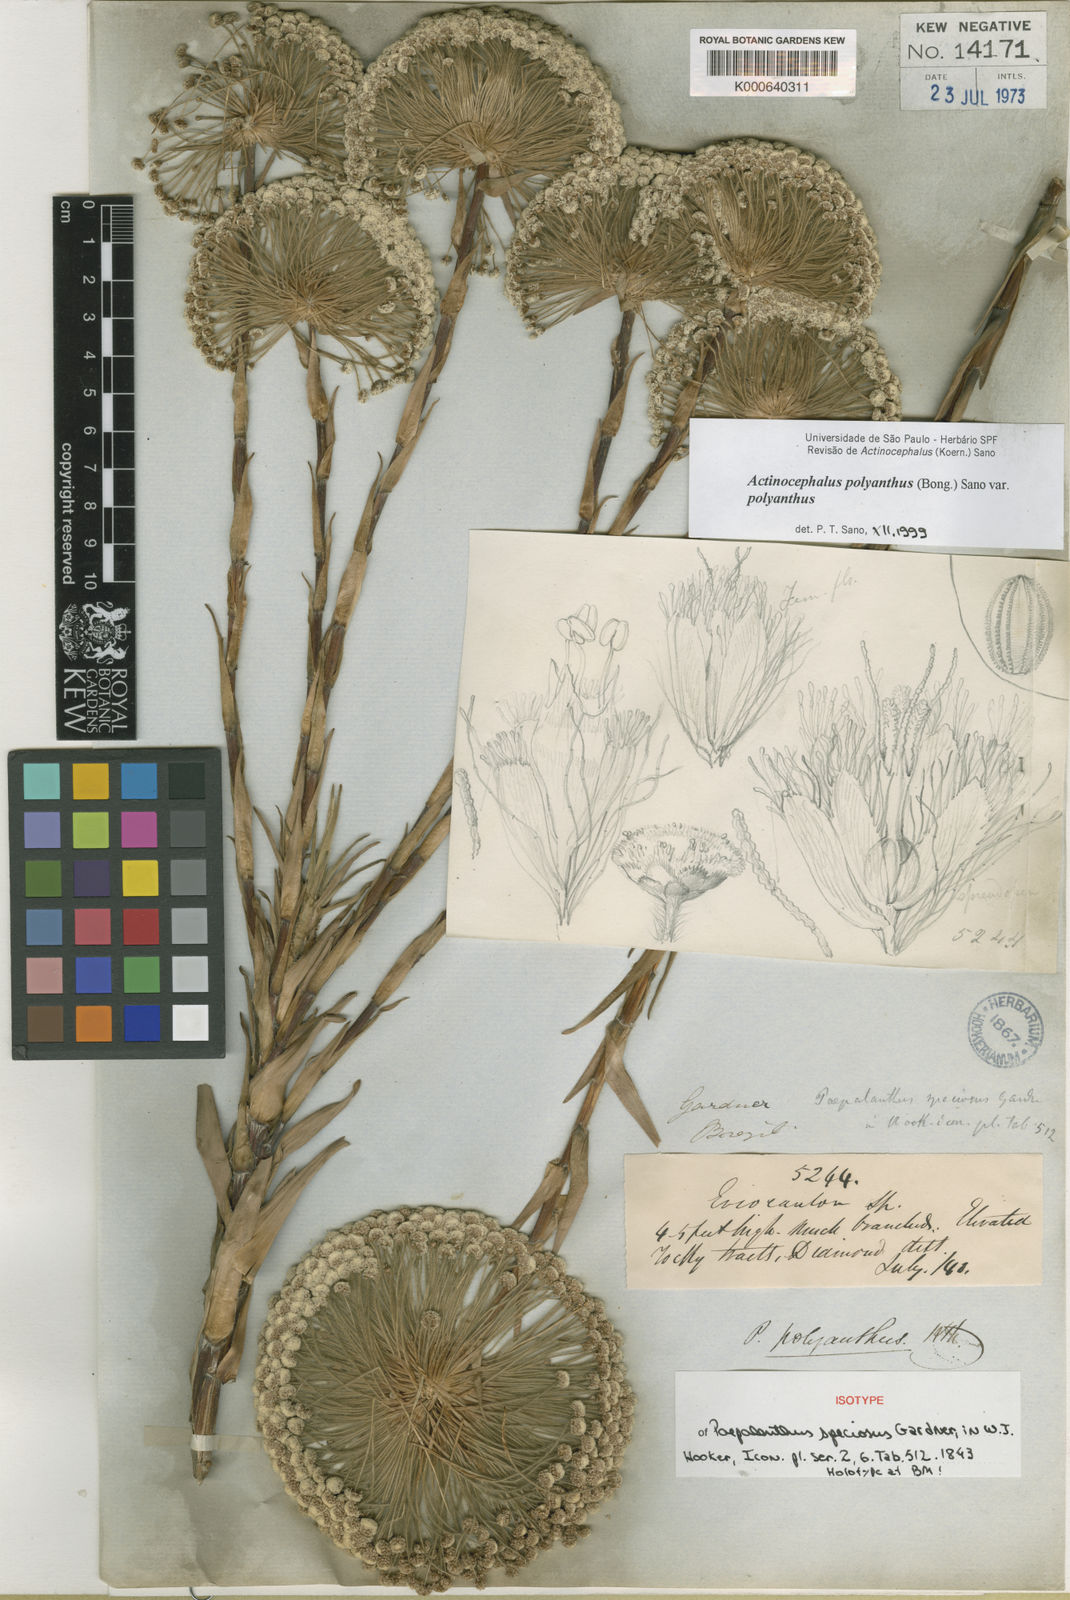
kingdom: Plantae
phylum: Tracheophyta
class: Liliopsida
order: Poales
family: Eriocaulaceae
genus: Paepalanthus
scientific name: Paepalanthus polyanthus
